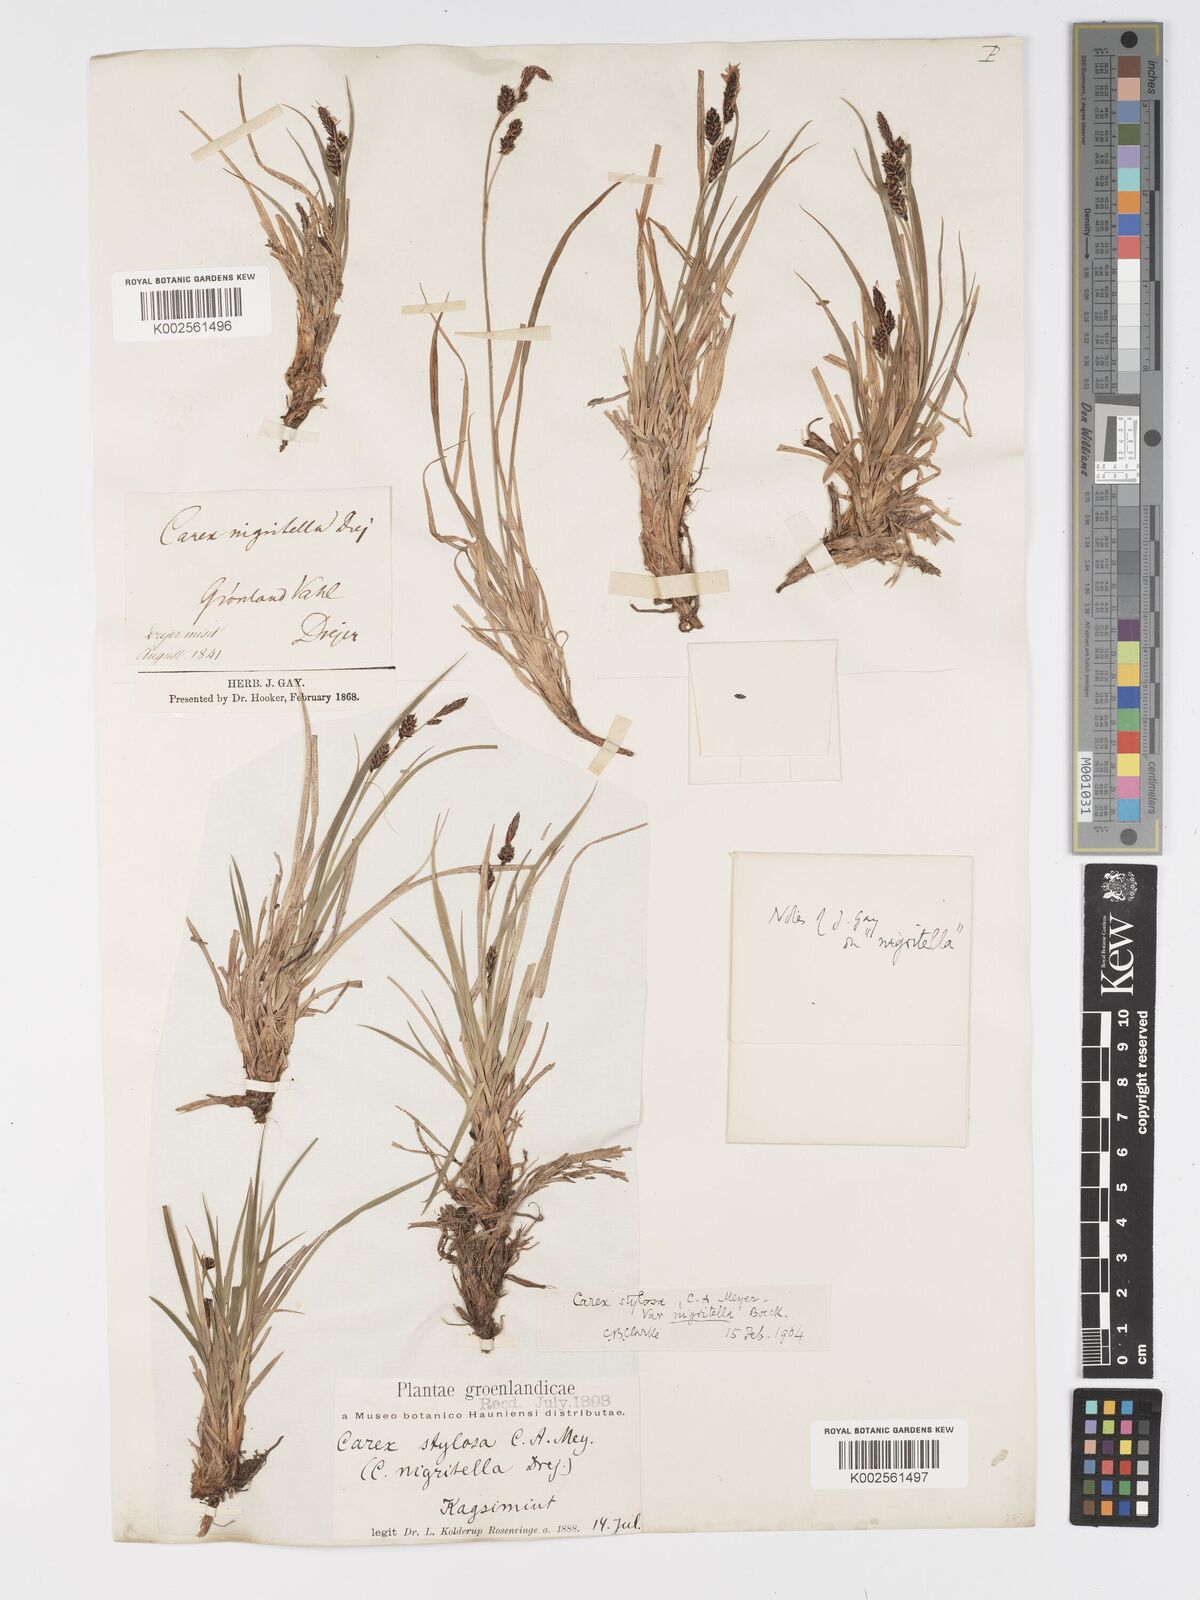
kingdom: Plantae
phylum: Tracheophyta
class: Liliopsida
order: Poales
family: Cyperaceae
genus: Carex
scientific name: Carex stylosa
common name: Long-styled sedge
